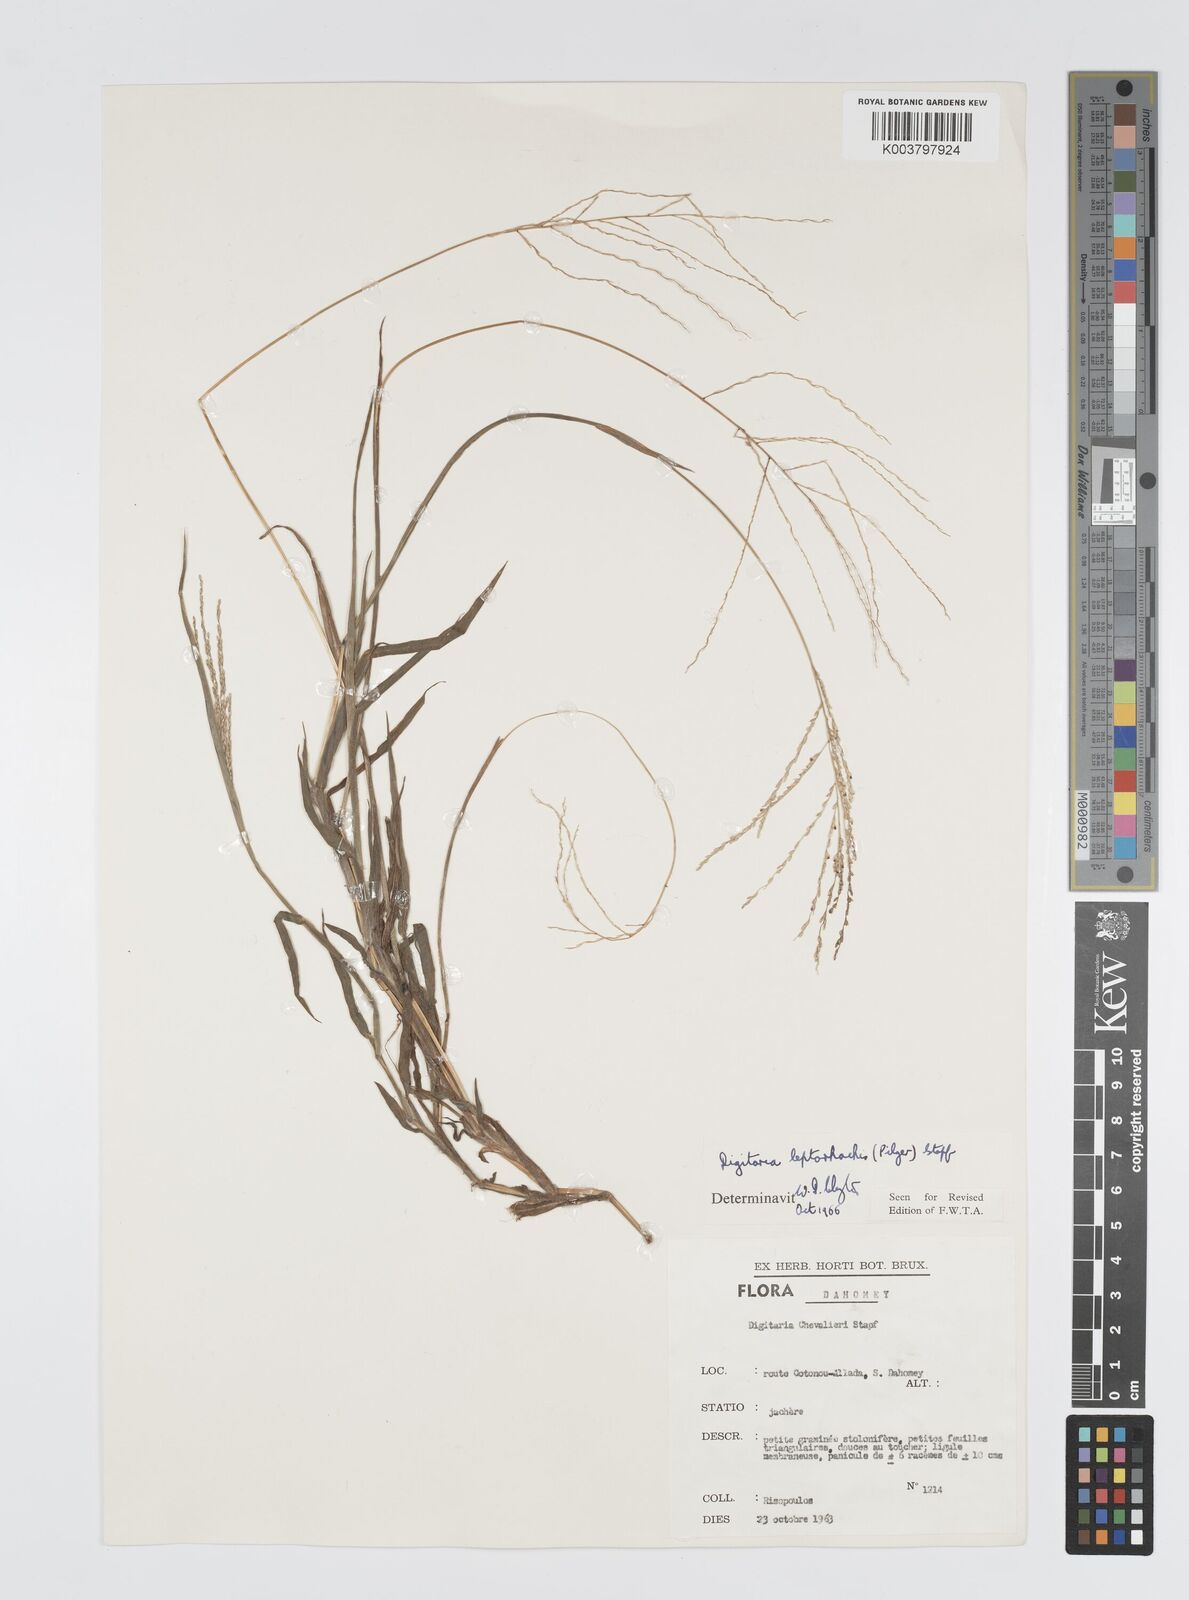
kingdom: Plantae
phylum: Tracheophyta
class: Liliopsida
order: Poales
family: Poaceae
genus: Digitaria
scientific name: Digitaria leptorhachis
